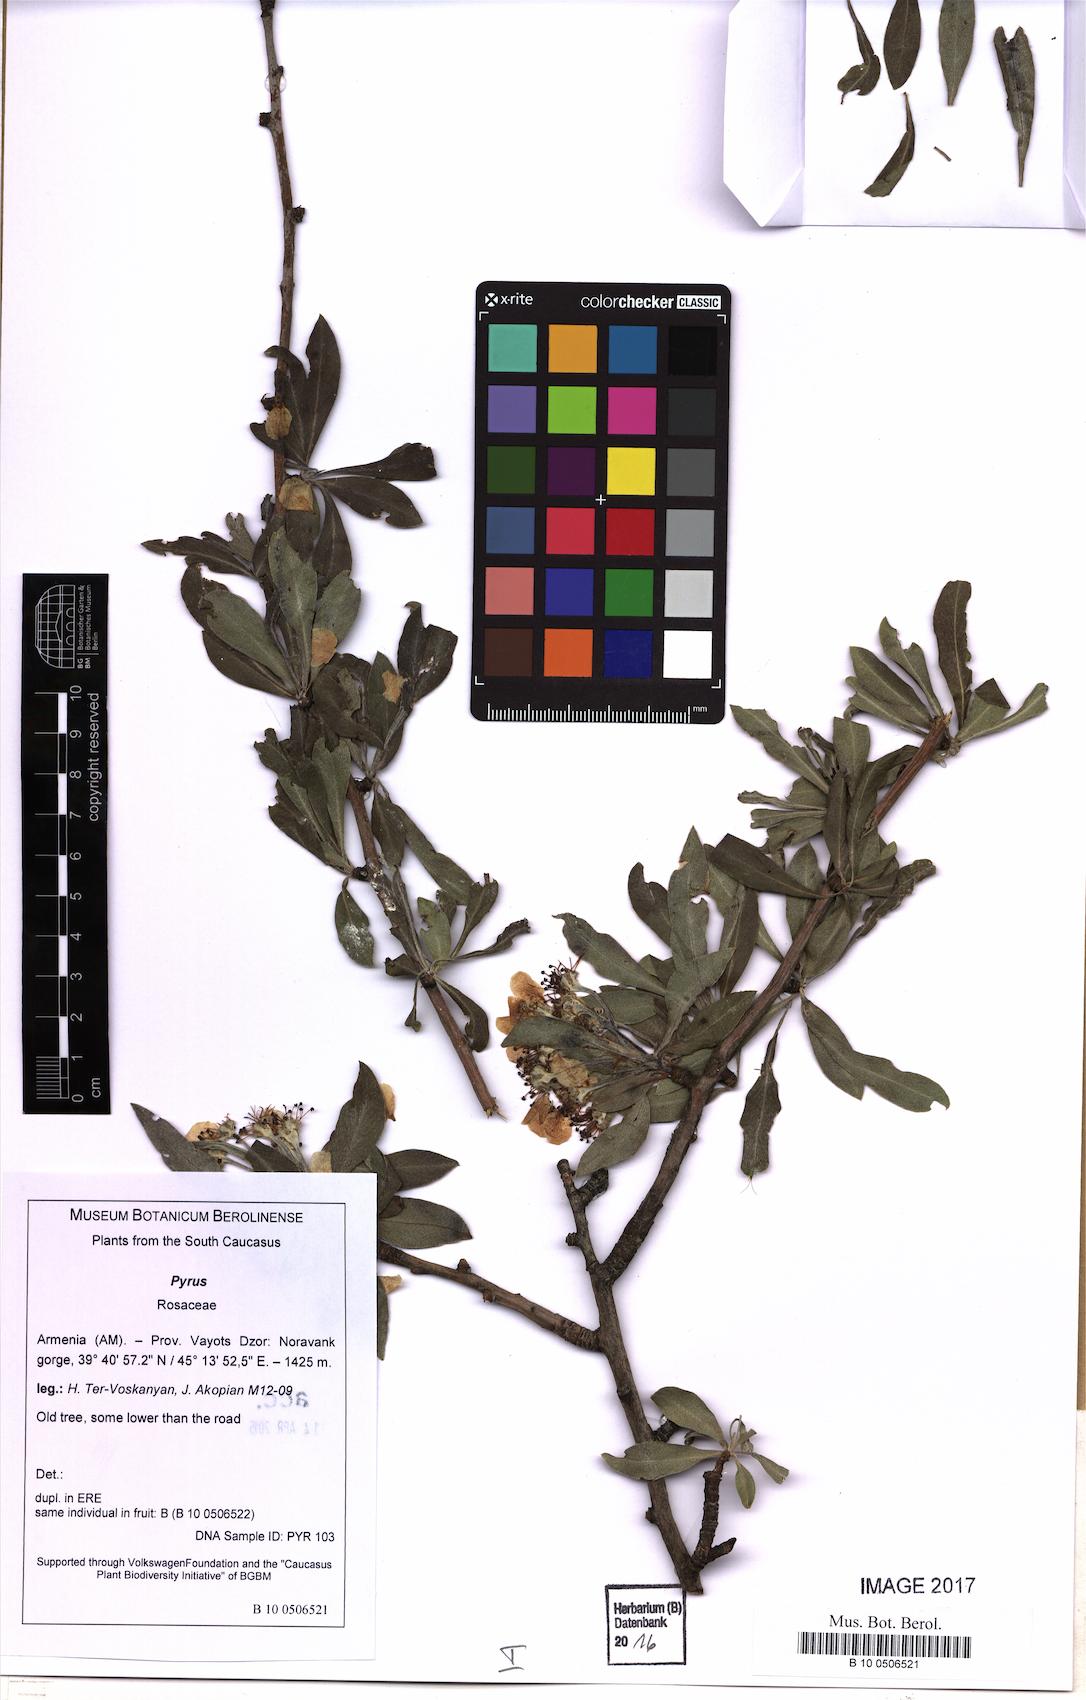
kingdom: Plantae
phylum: Tracheophyta
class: Magnoliopsida
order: Rosales
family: Rosaceae
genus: Pyrus
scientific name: Pyrus
